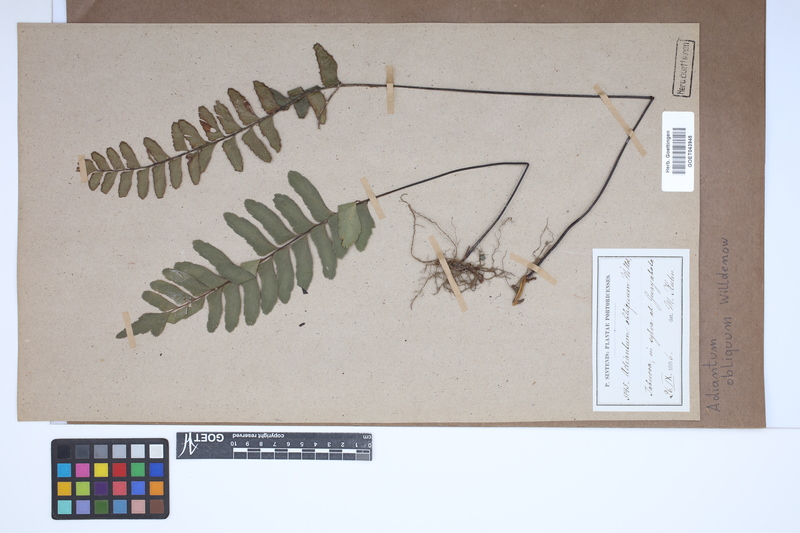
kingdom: Plantae
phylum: Tracheophyta
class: Polypodiopsida
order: Polypodiales
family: Pteridaceae
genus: Adiantum
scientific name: Adiantum obliquum
